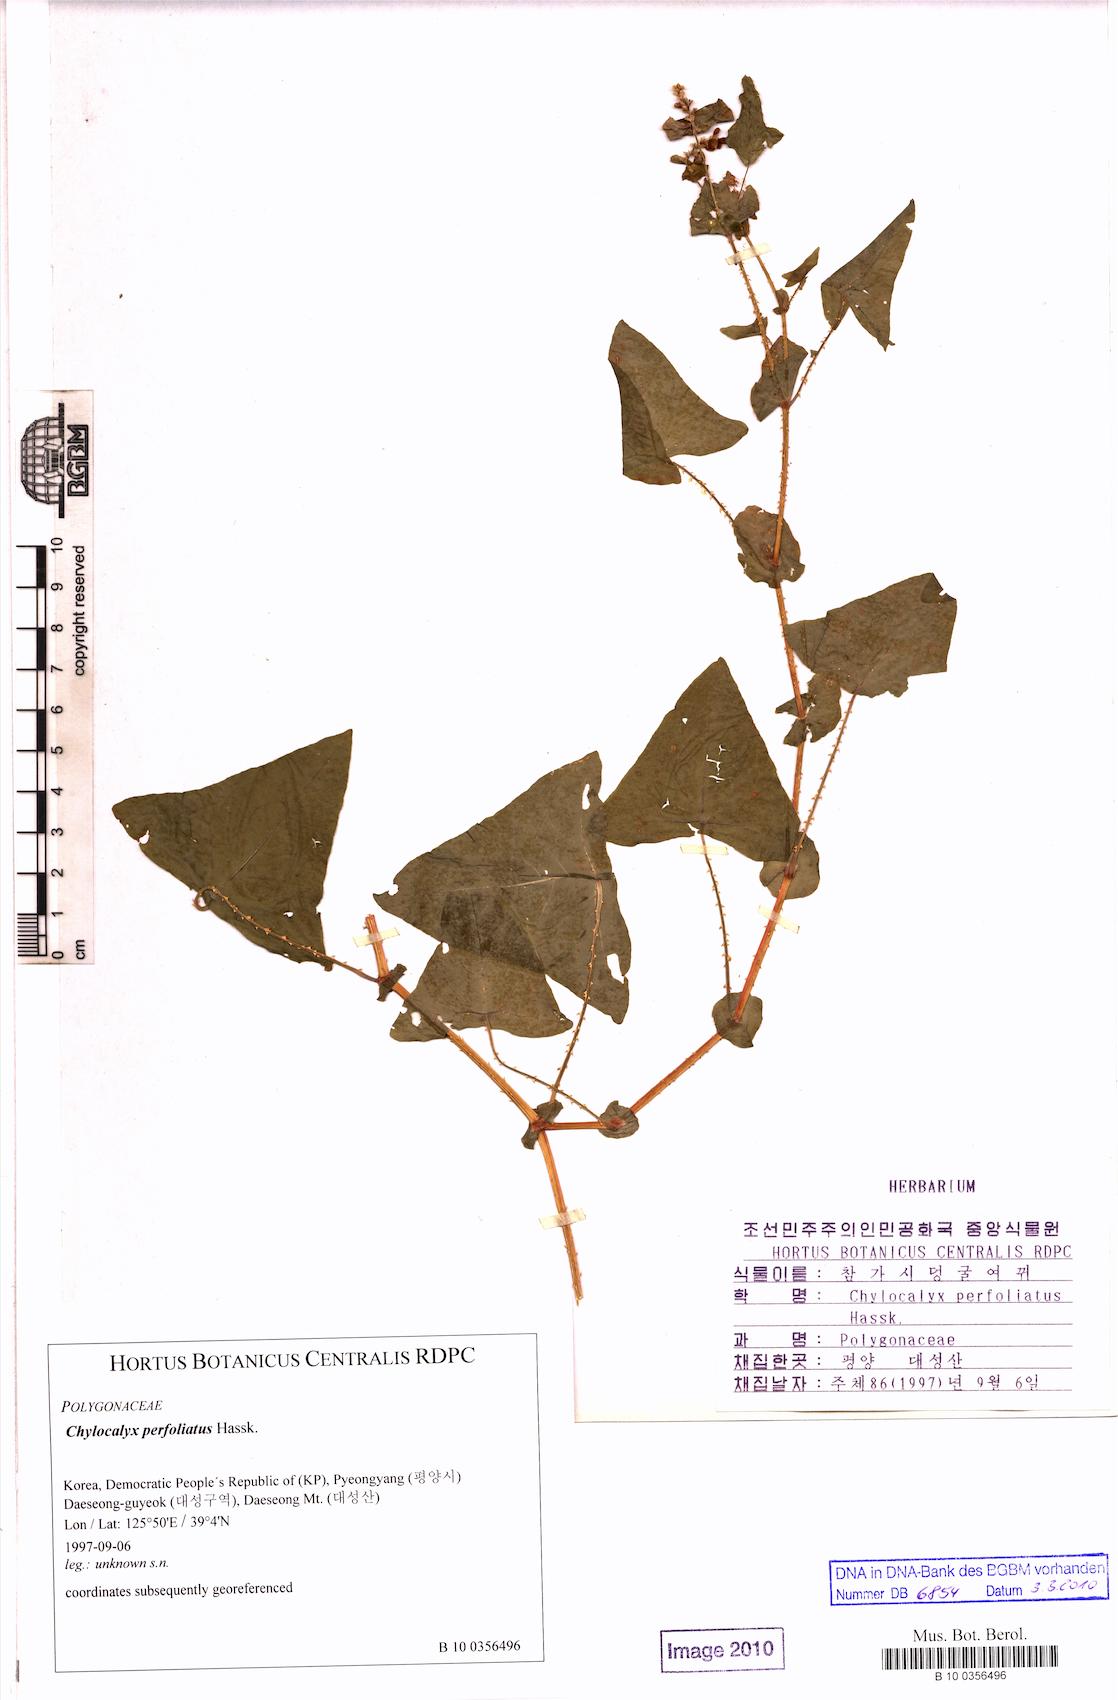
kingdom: Plantae
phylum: Tracheophyta
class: Magnoliopsida
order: Caryophyllales
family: Polygonaceae
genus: Persicaria
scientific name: Persicaria perfoliata
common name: Asiatic tearthumb
